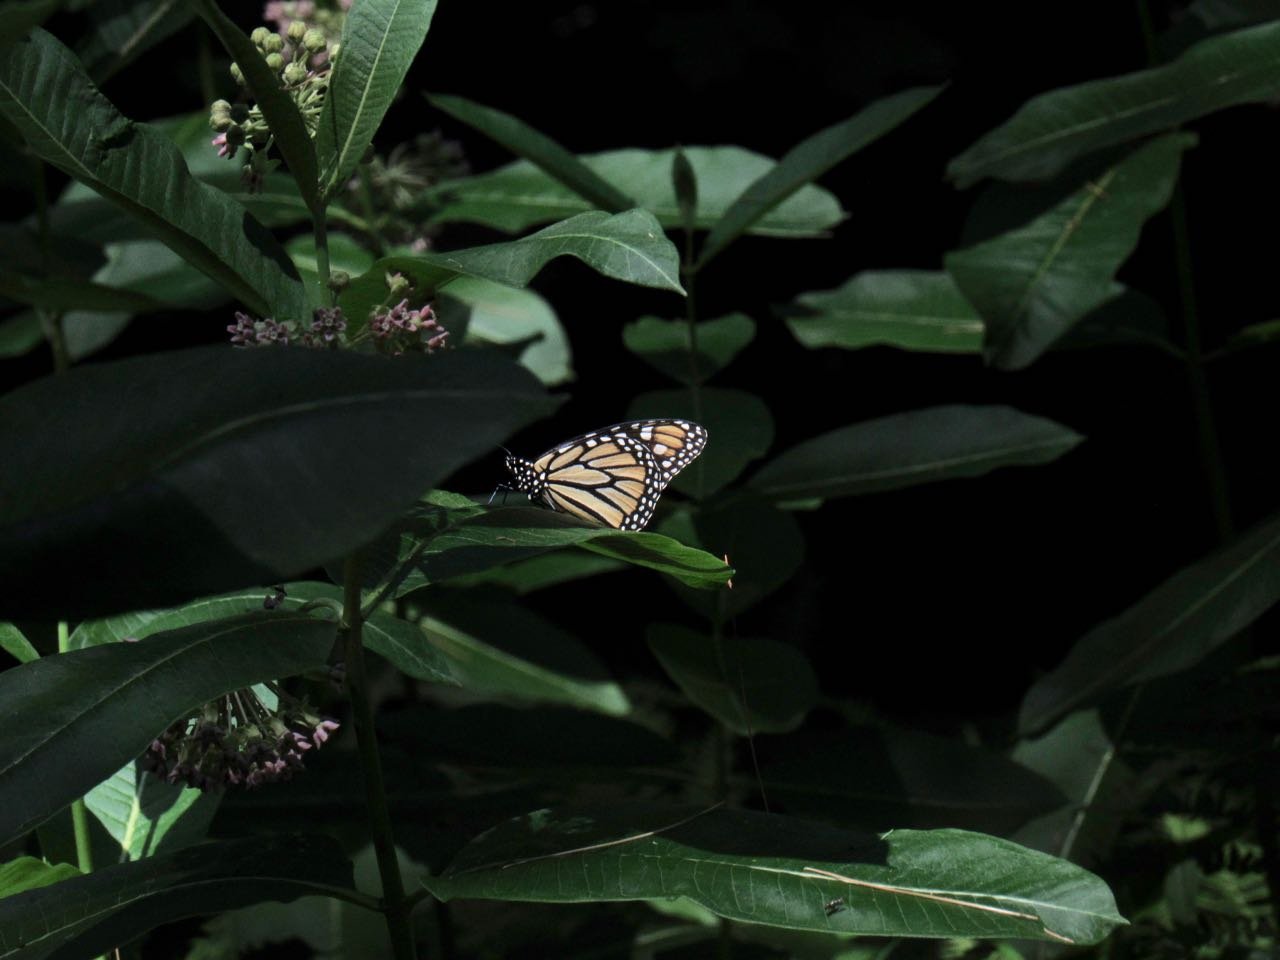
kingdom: Animalia
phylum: Arthropoda
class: Insecta
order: Lepidoptera
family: Nymphalidae
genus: Danaus
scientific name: Danaus plexippus
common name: Monarch
